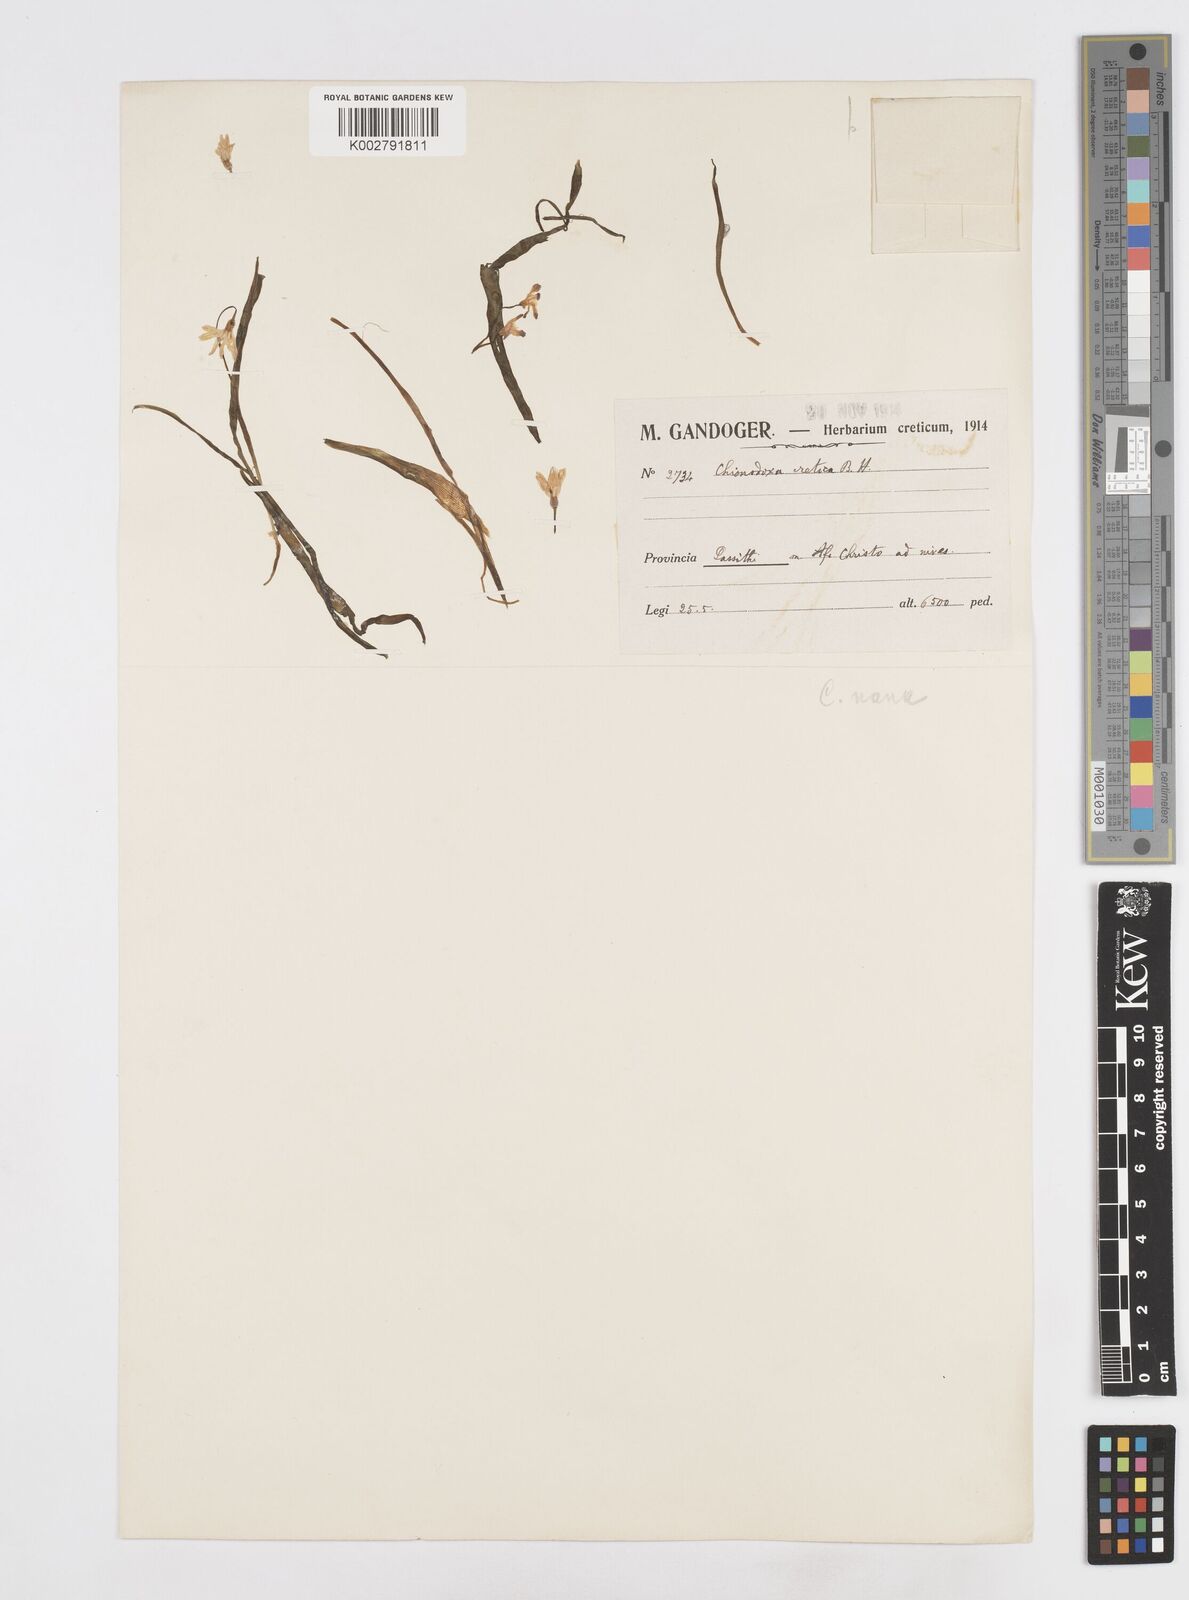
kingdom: Plantae
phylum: Tracheophyta
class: Liliopsida
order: Asparagales
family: Asparagaceae
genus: Scilla
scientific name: Scilla cretica
